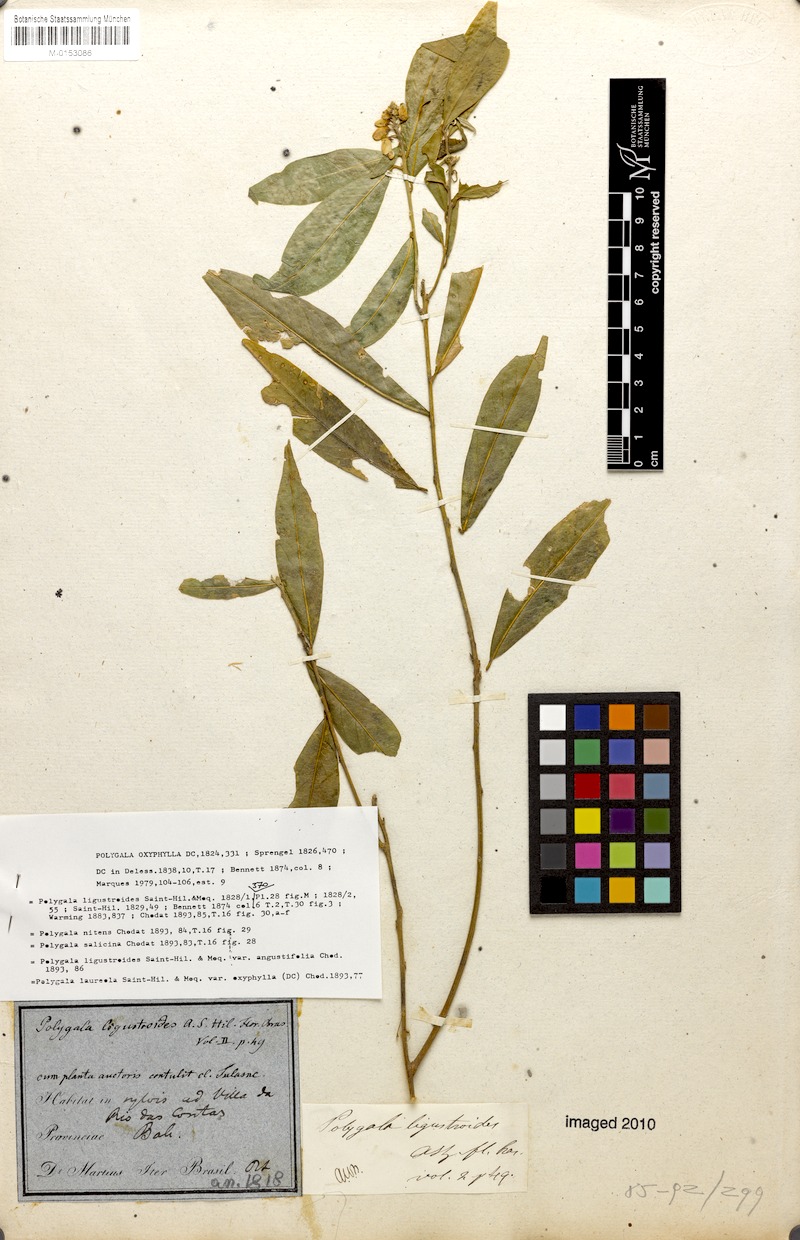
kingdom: Plantae
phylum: Tracheophyta
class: Magnoliopsida
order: Fabales
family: Polygalaceae
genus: Caamembeca
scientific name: Caamembeca oxyphylla
